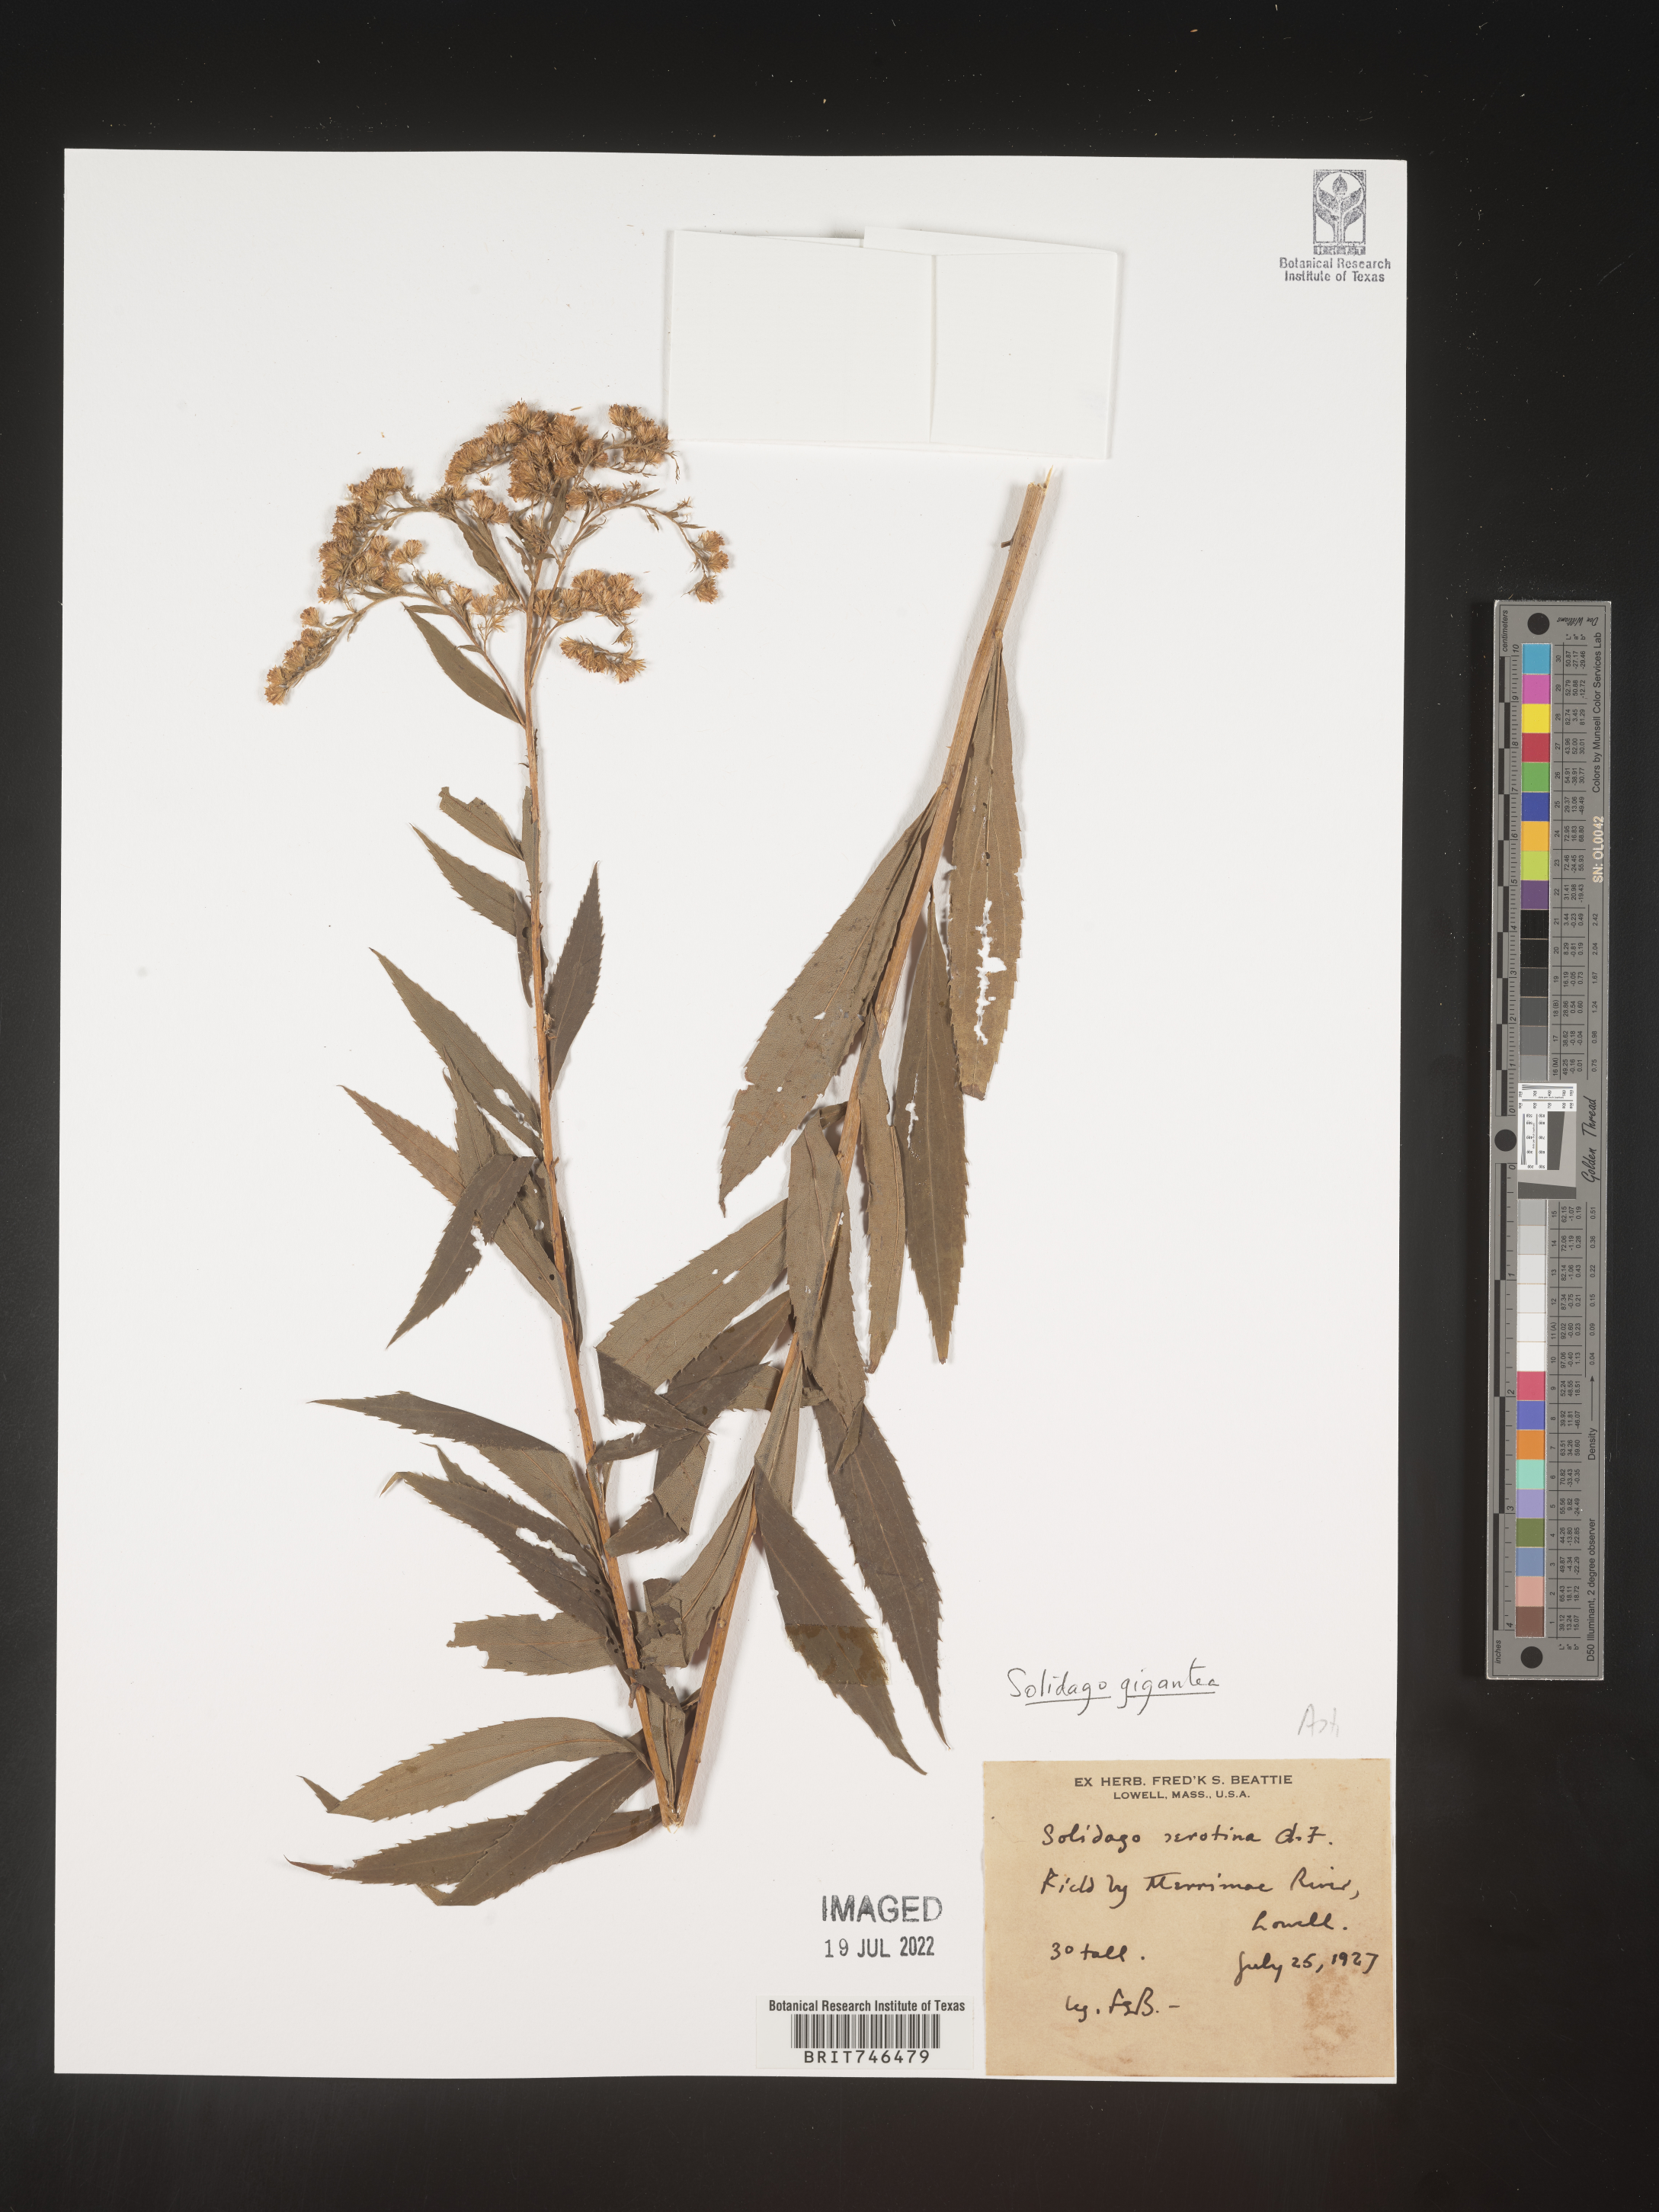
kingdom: Plantae
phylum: Tracheophyta
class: Magnoliopsida
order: Asterales
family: Asteraceae
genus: Solidago
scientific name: Solidago gigantea
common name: Giant goldenrod
